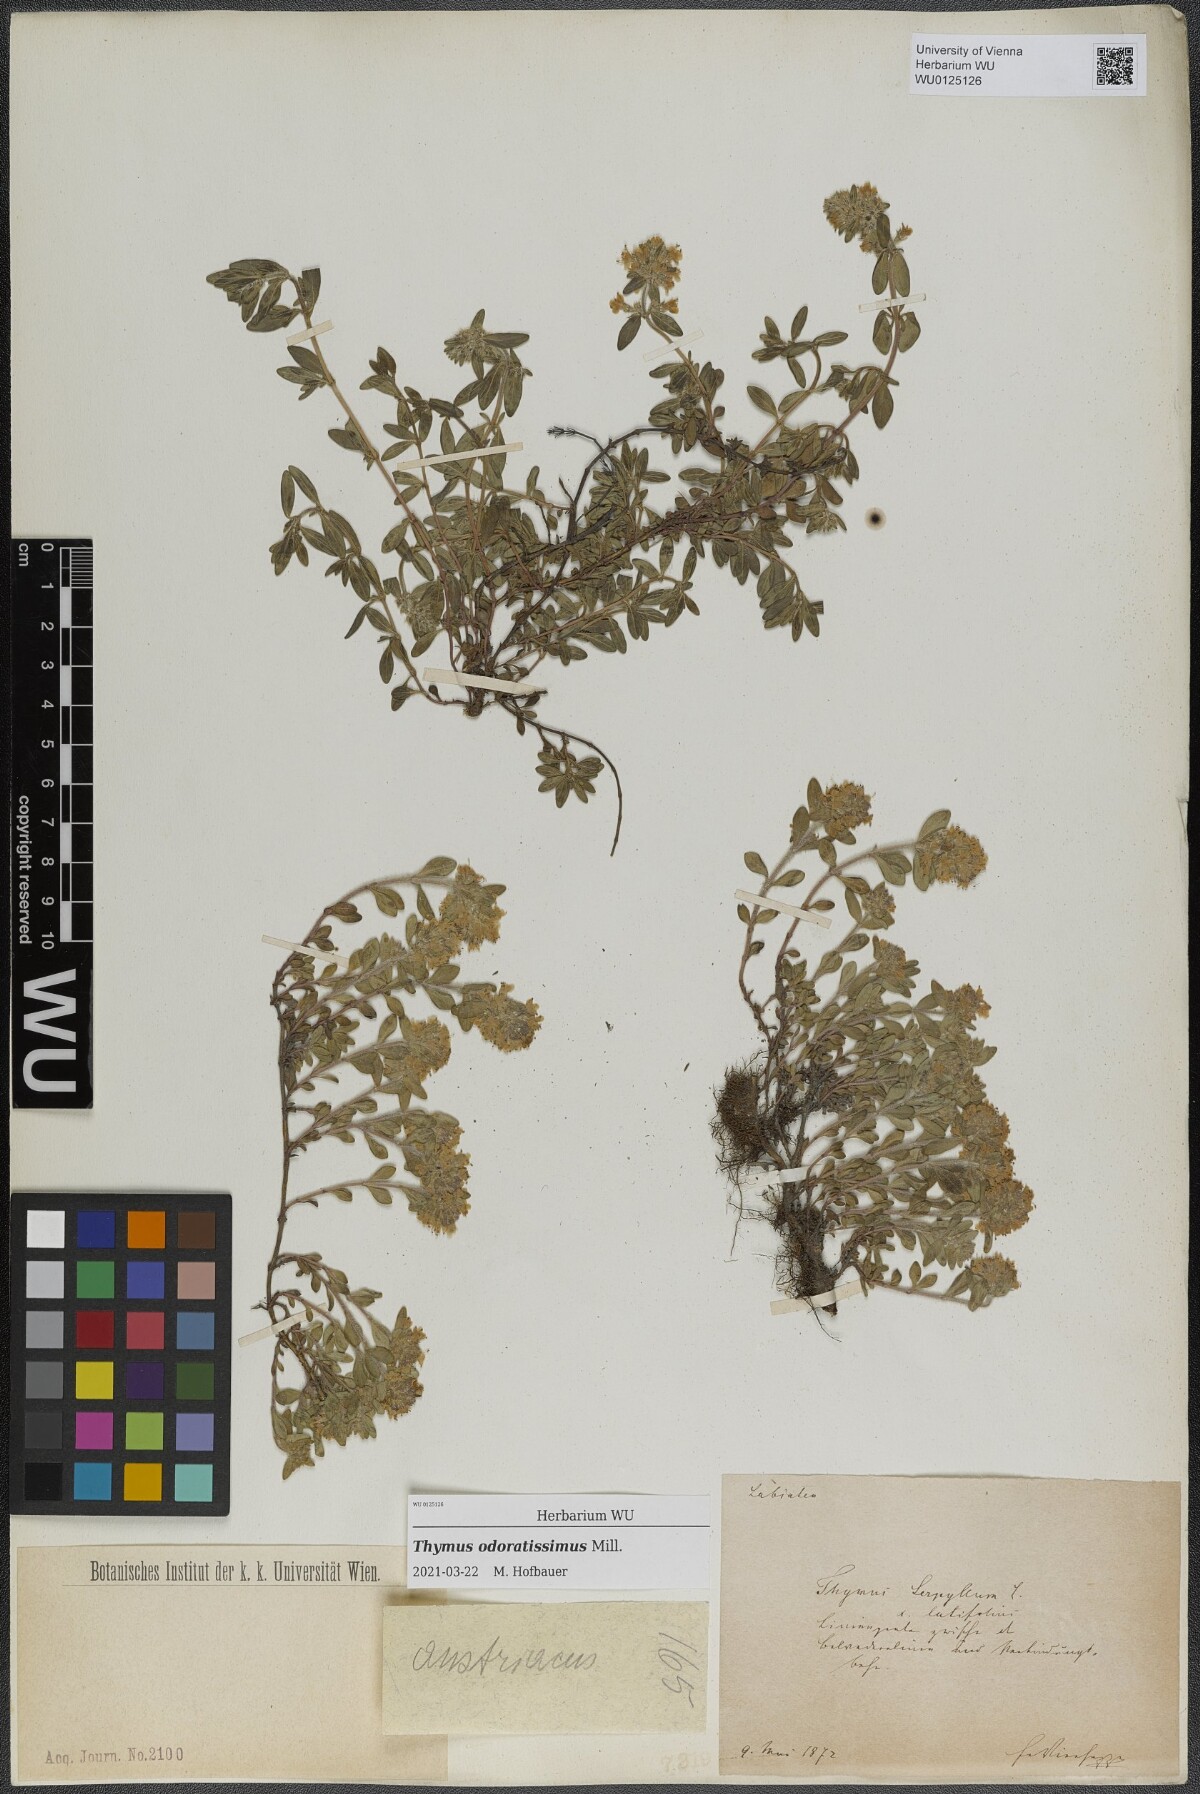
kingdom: Plantae
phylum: Tracheophyta
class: Magnoliopsida
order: Lamiales
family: Lamiaceae
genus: Thymus
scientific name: Thymus odoratissimus
